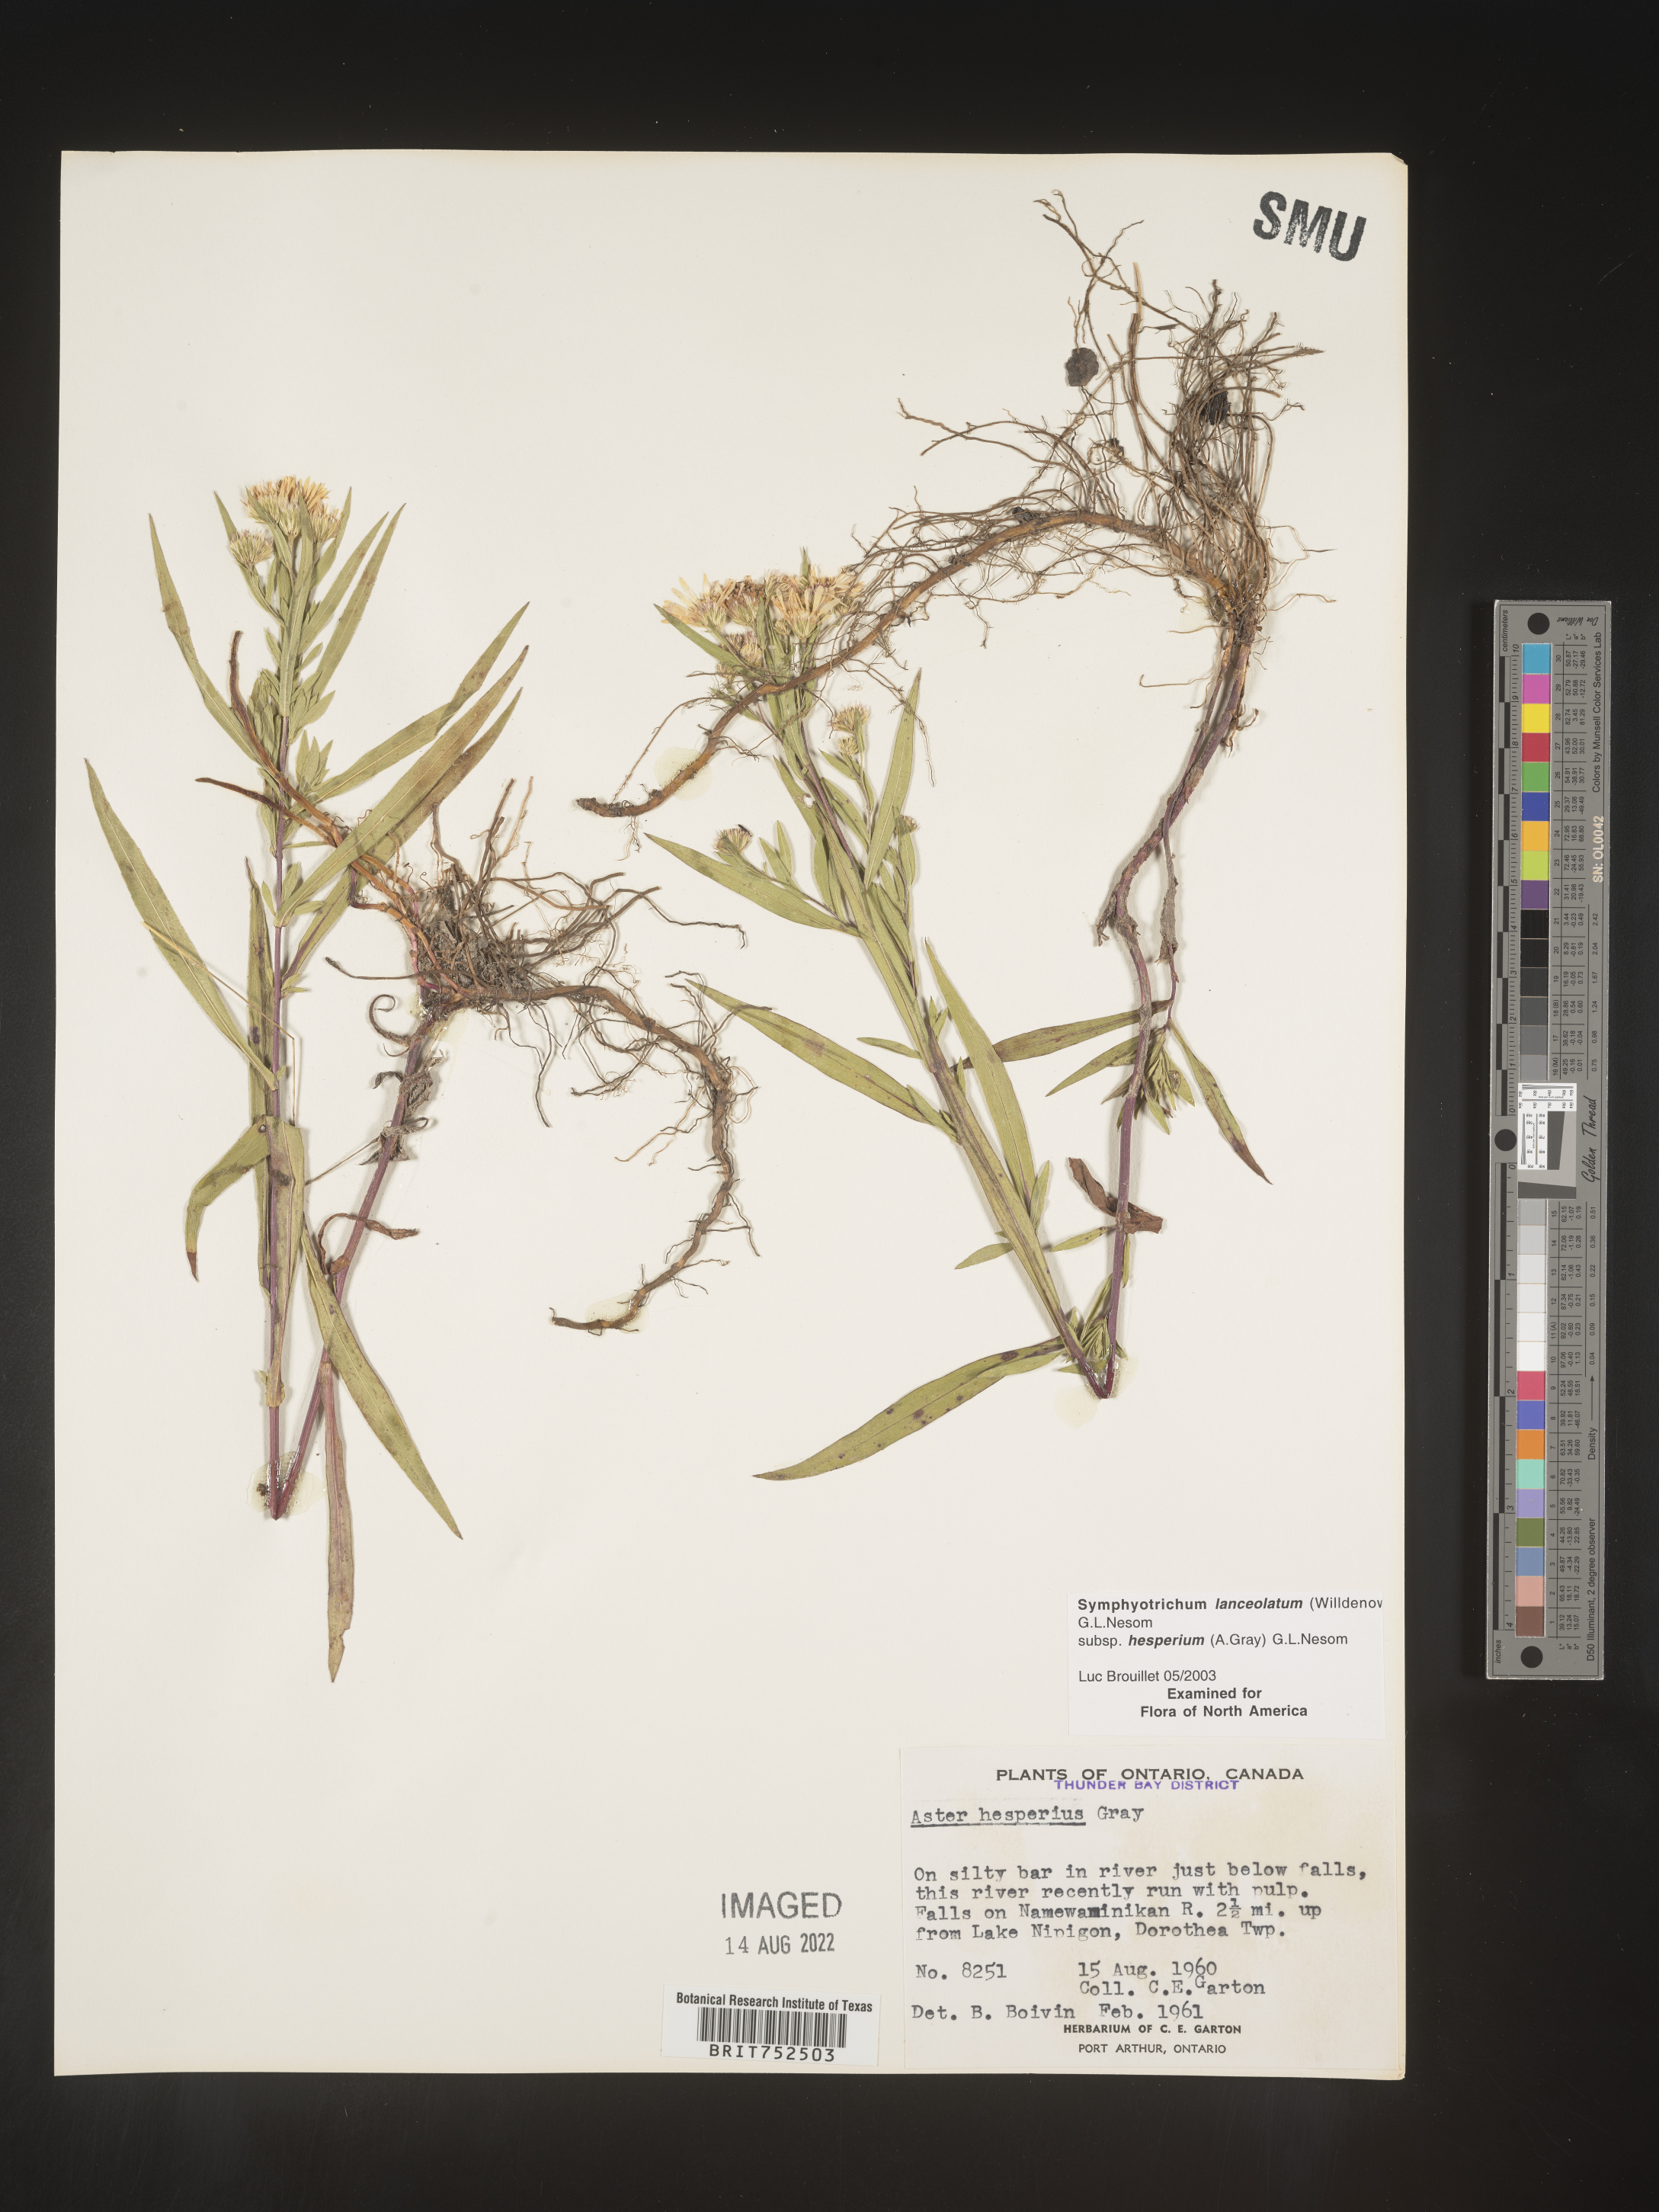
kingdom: Plantae
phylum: Tracheophyta
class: Magnoliopsida
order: Asterales
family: Asteraceae
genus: Symphyotrichum
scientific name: Symphyotrichum lanceolatum
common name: Panicled aster
